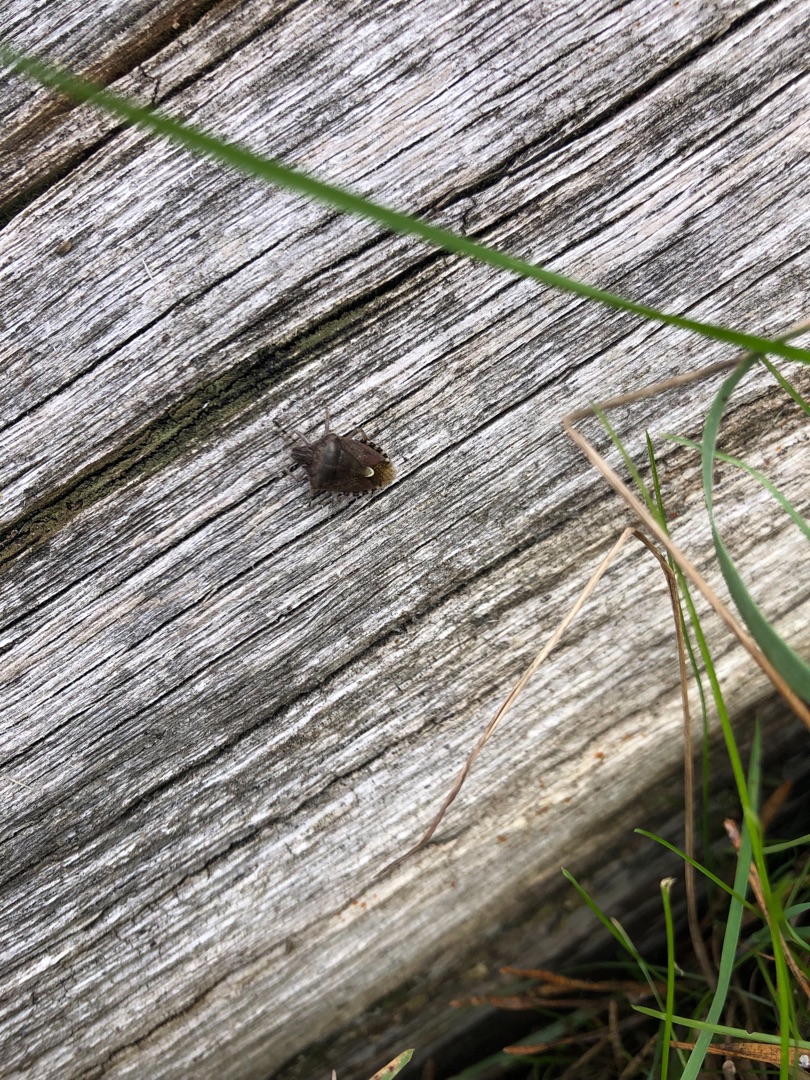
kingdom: Animalia
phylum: Arthropoda
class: Insecta
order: Hemiptera
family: Pentatomidae
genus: Dolycoris
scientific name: Dolycoris baccarum
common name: Almindelig bærtæge
